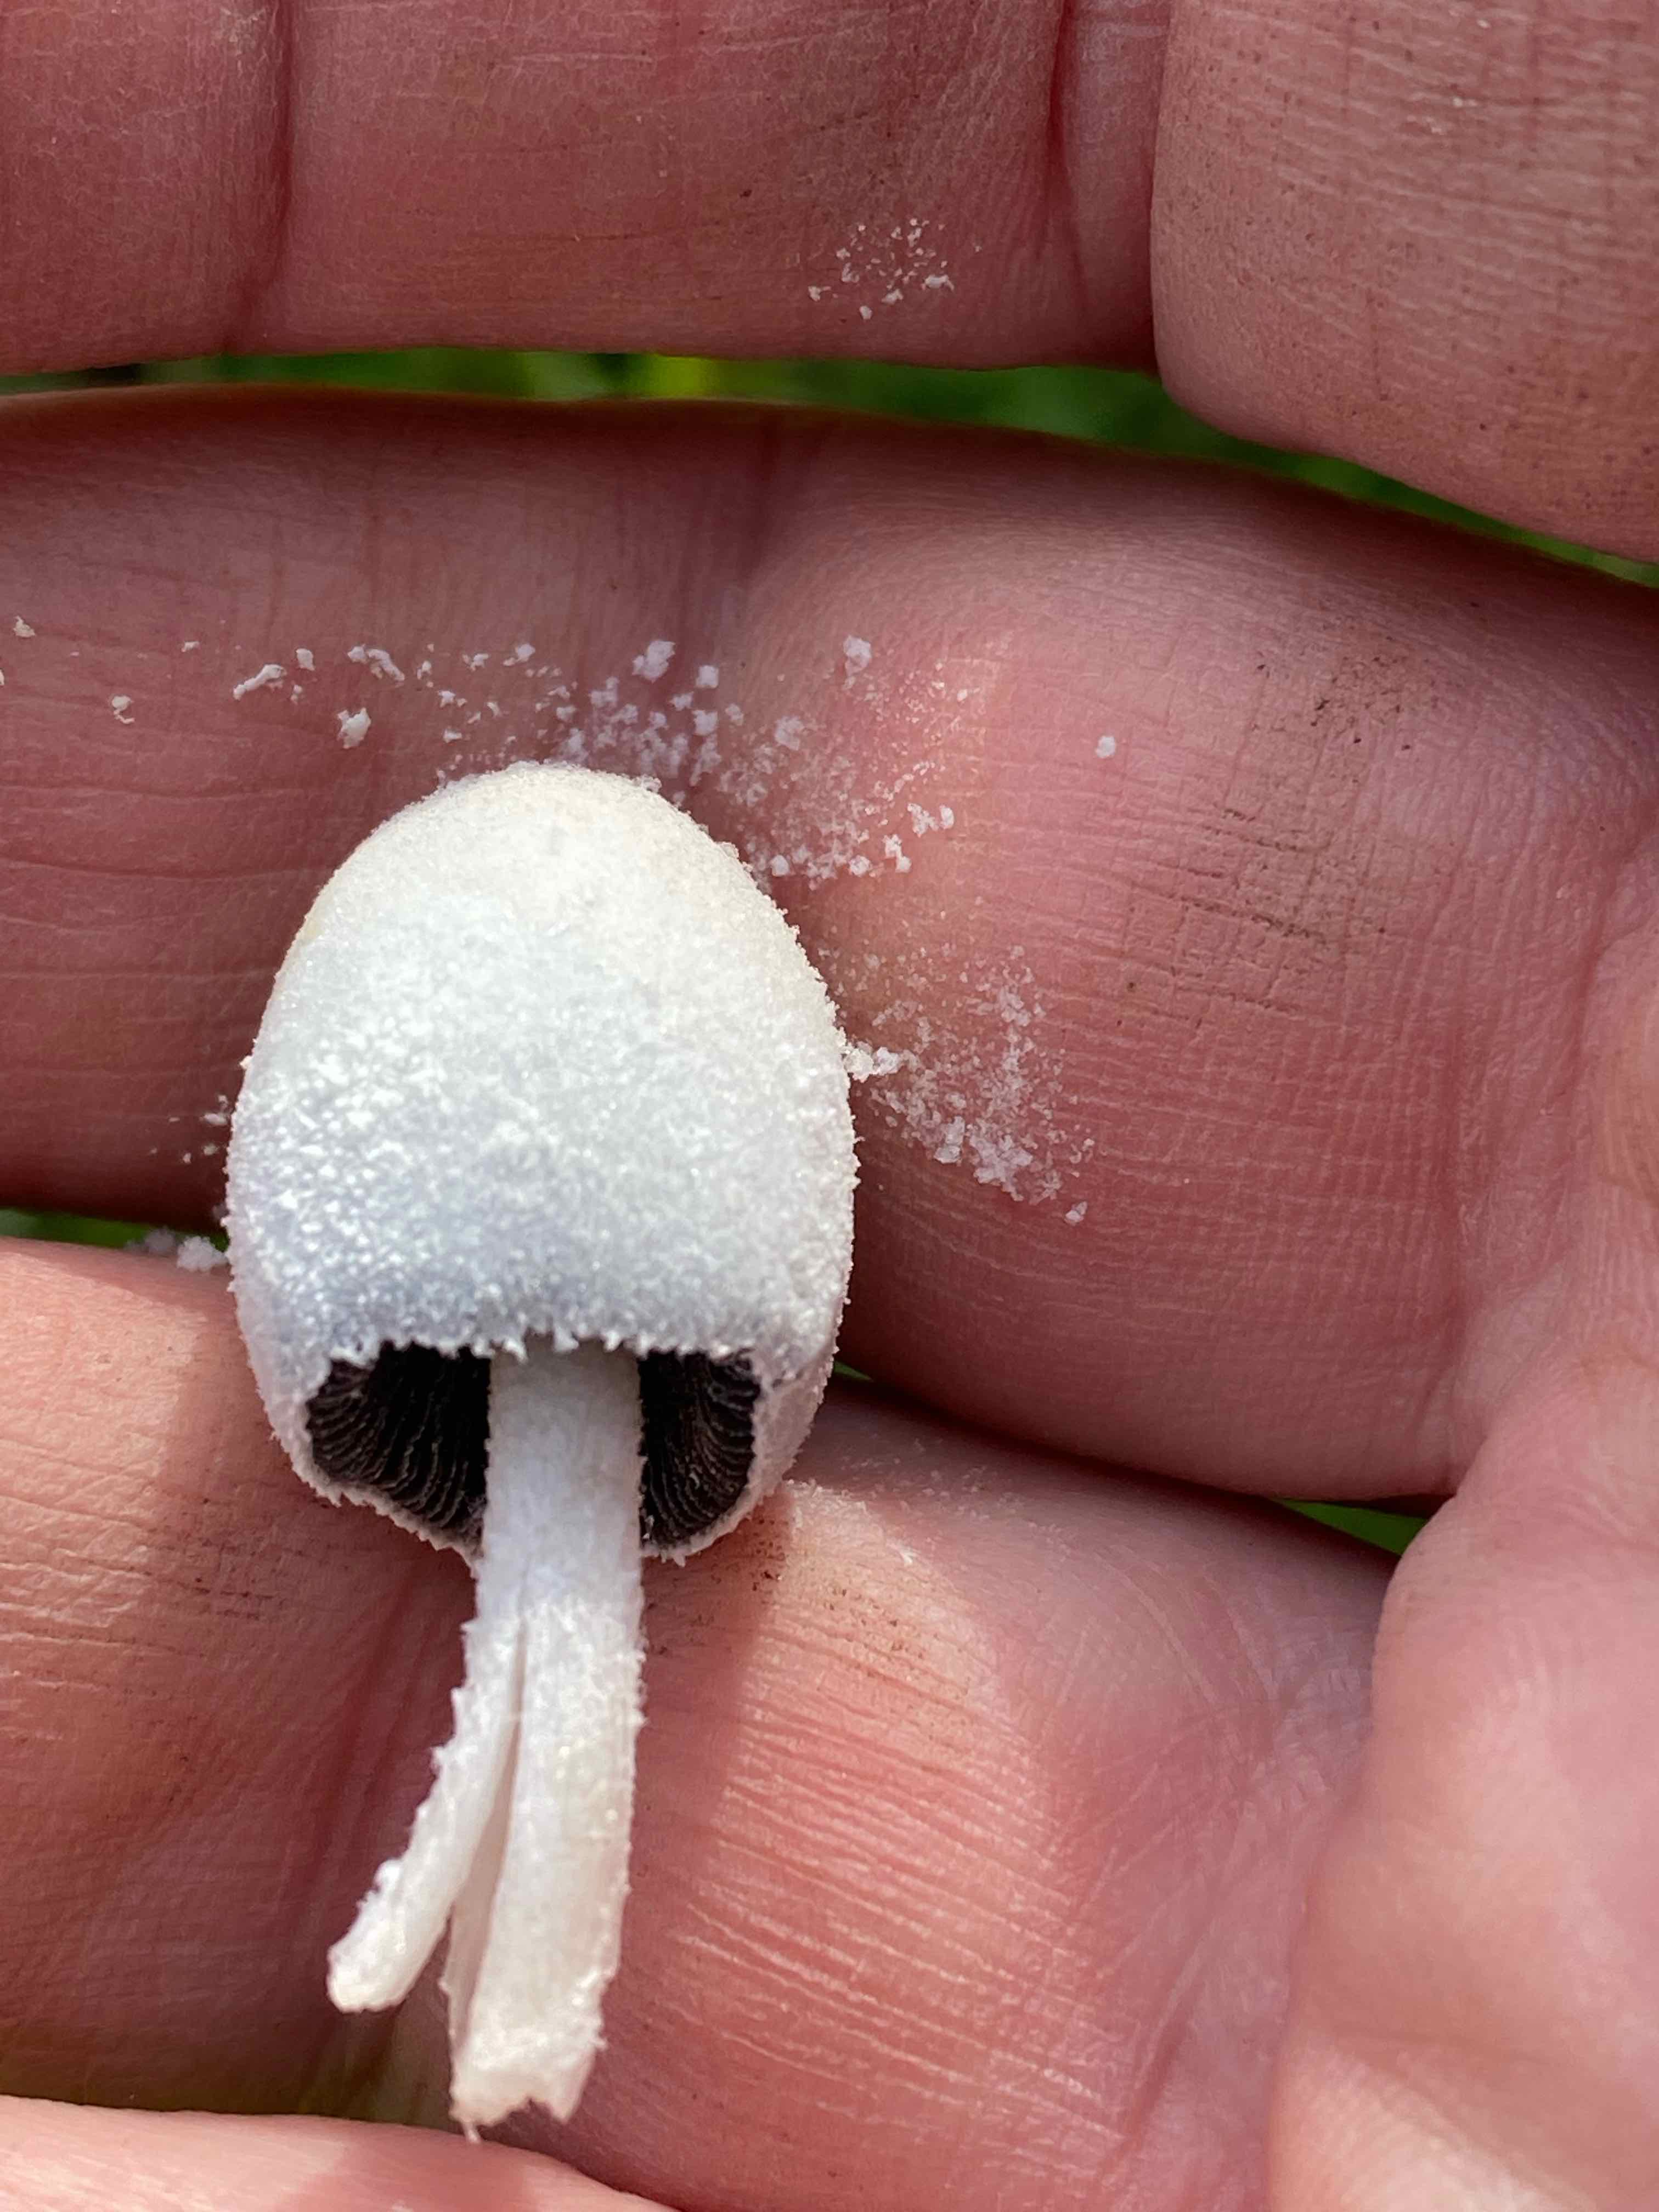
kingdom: Fungi
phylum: Basidiomycota
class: Agaricomycetes
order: Agaricales
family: Psathyrellaceae
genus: Coprinopsis
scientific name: Coprinopsis nivea
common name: snehvid blækhat
